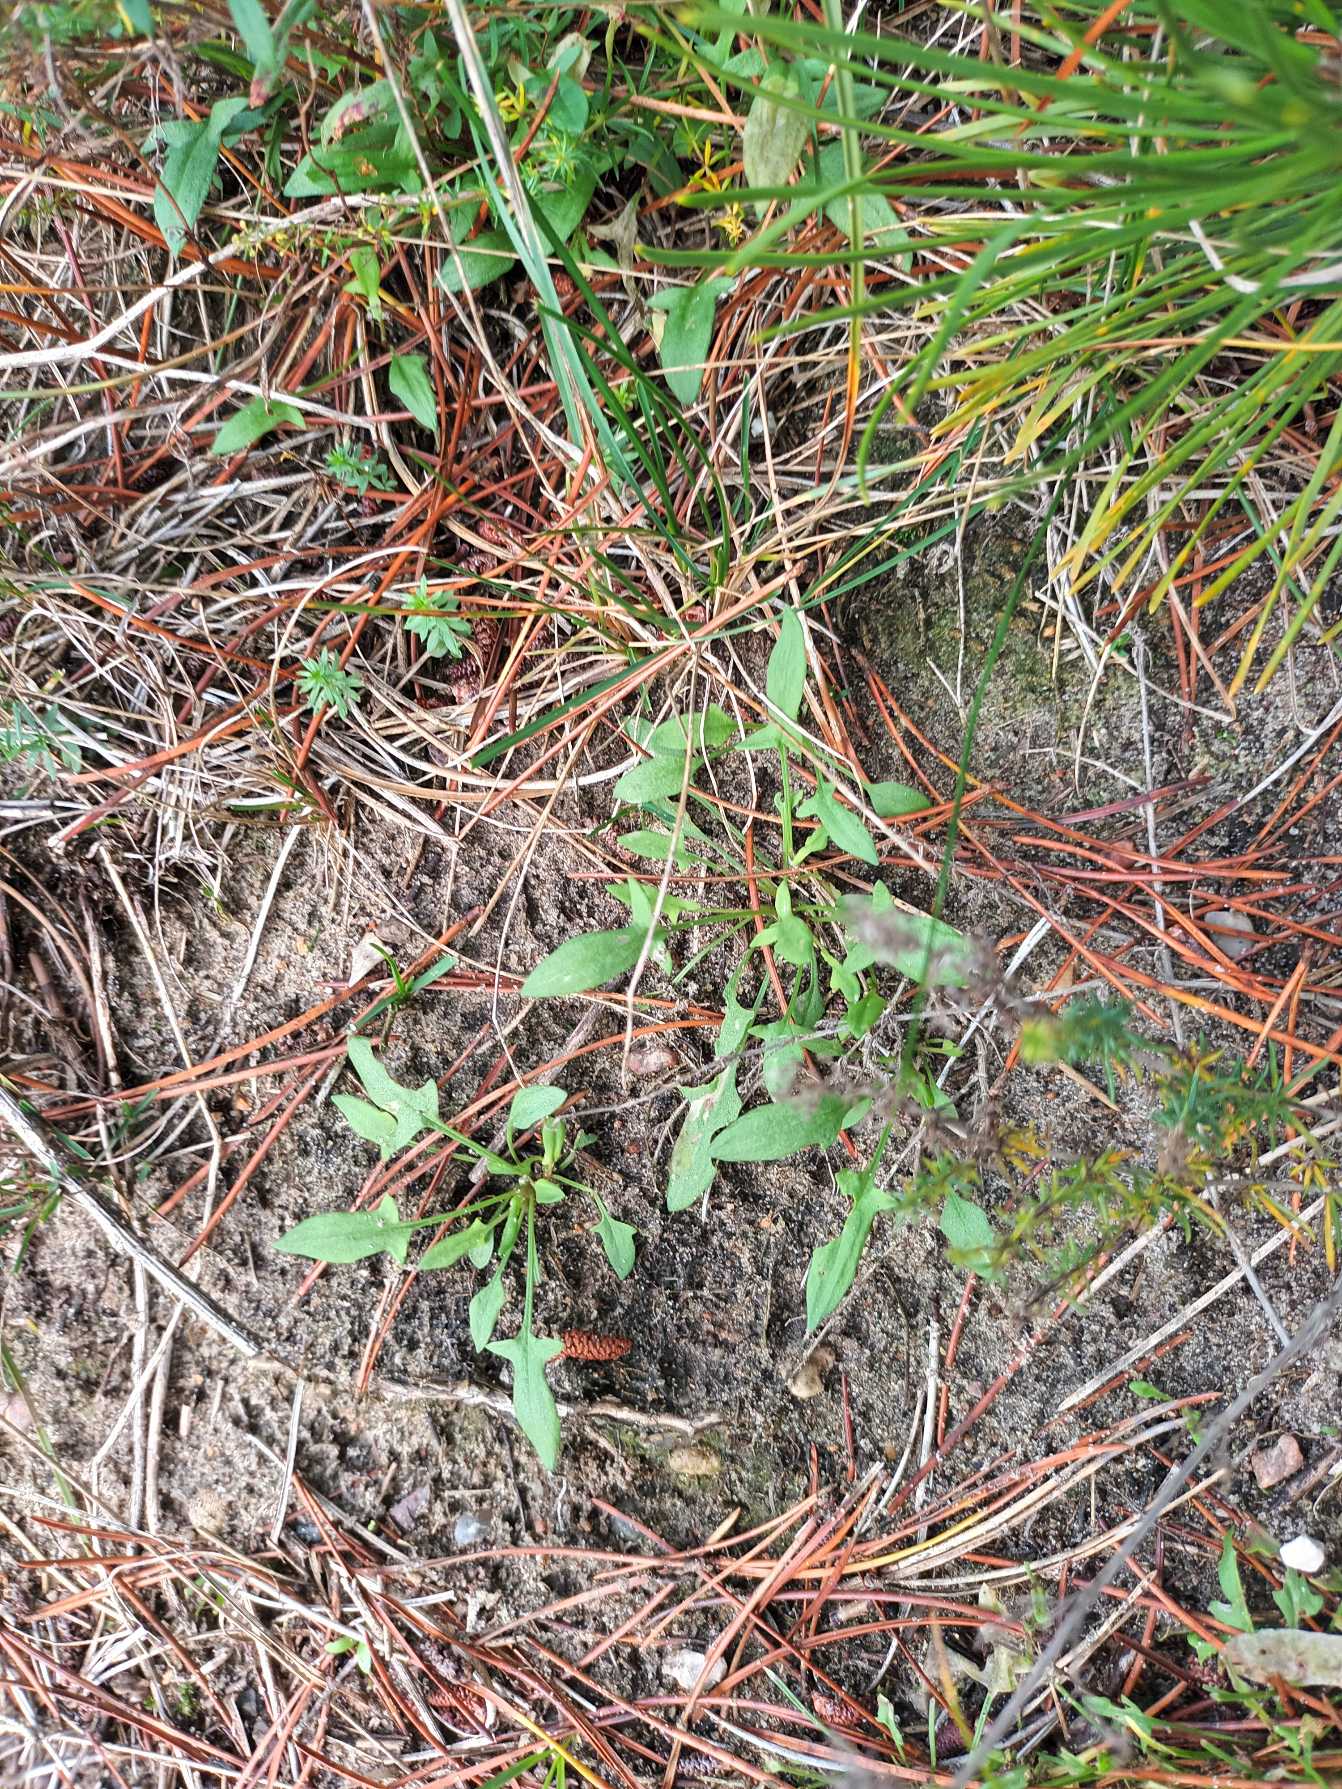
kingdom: Plantae
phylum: Tracheophyta
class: Magnoliopsida
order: Caryophyllales
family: Polygonaceae
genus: Rumex
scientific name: Rumex acetosella
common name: Rødknæ
